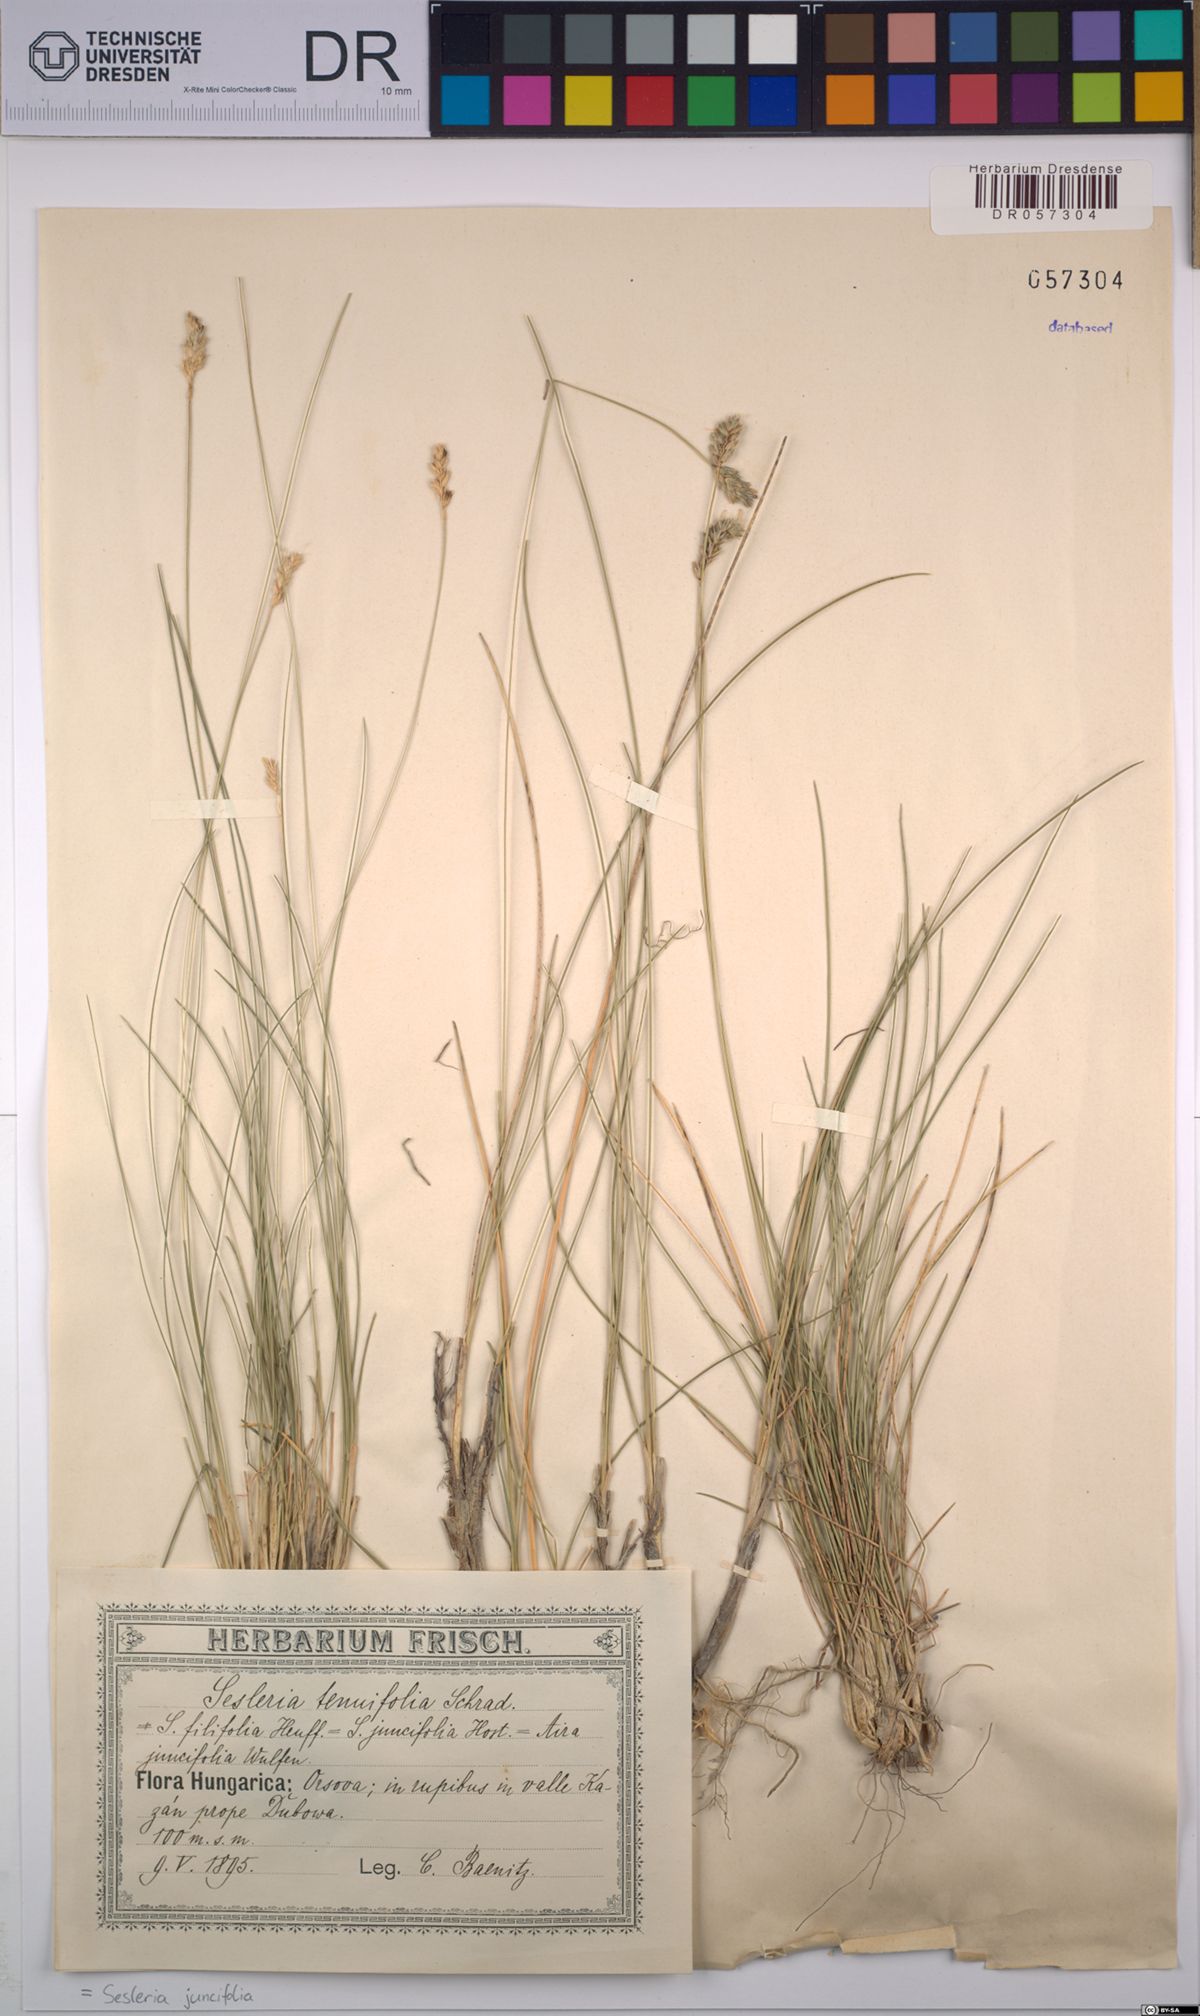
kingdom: Plantae
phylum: Tracheophyta
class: Liliopsida
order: Poales
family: Poaceae
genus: Sesleria
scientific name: Sesleria juncifolia
